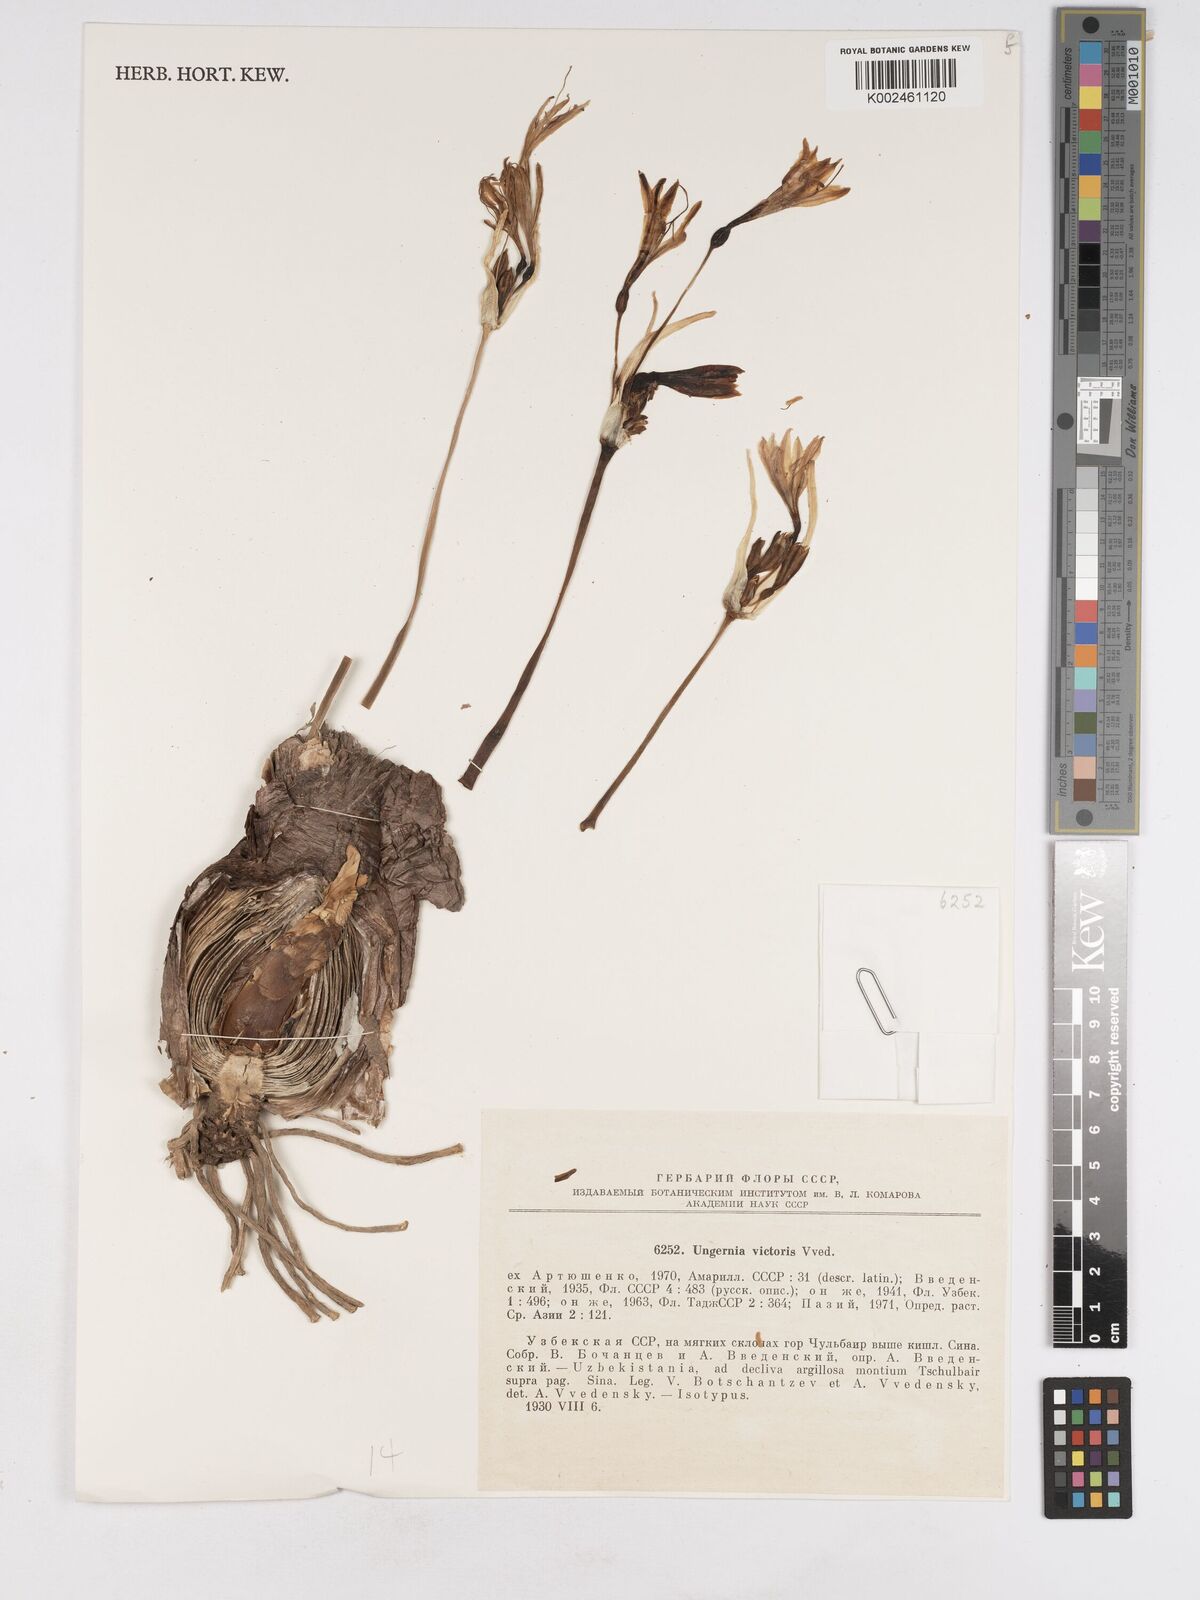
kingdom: Plantae
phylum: Tracheophyta
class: Liliopsida
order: Asparagales
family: Amaryllidaceae
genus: Ungernia
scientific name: Ungernia victoris
